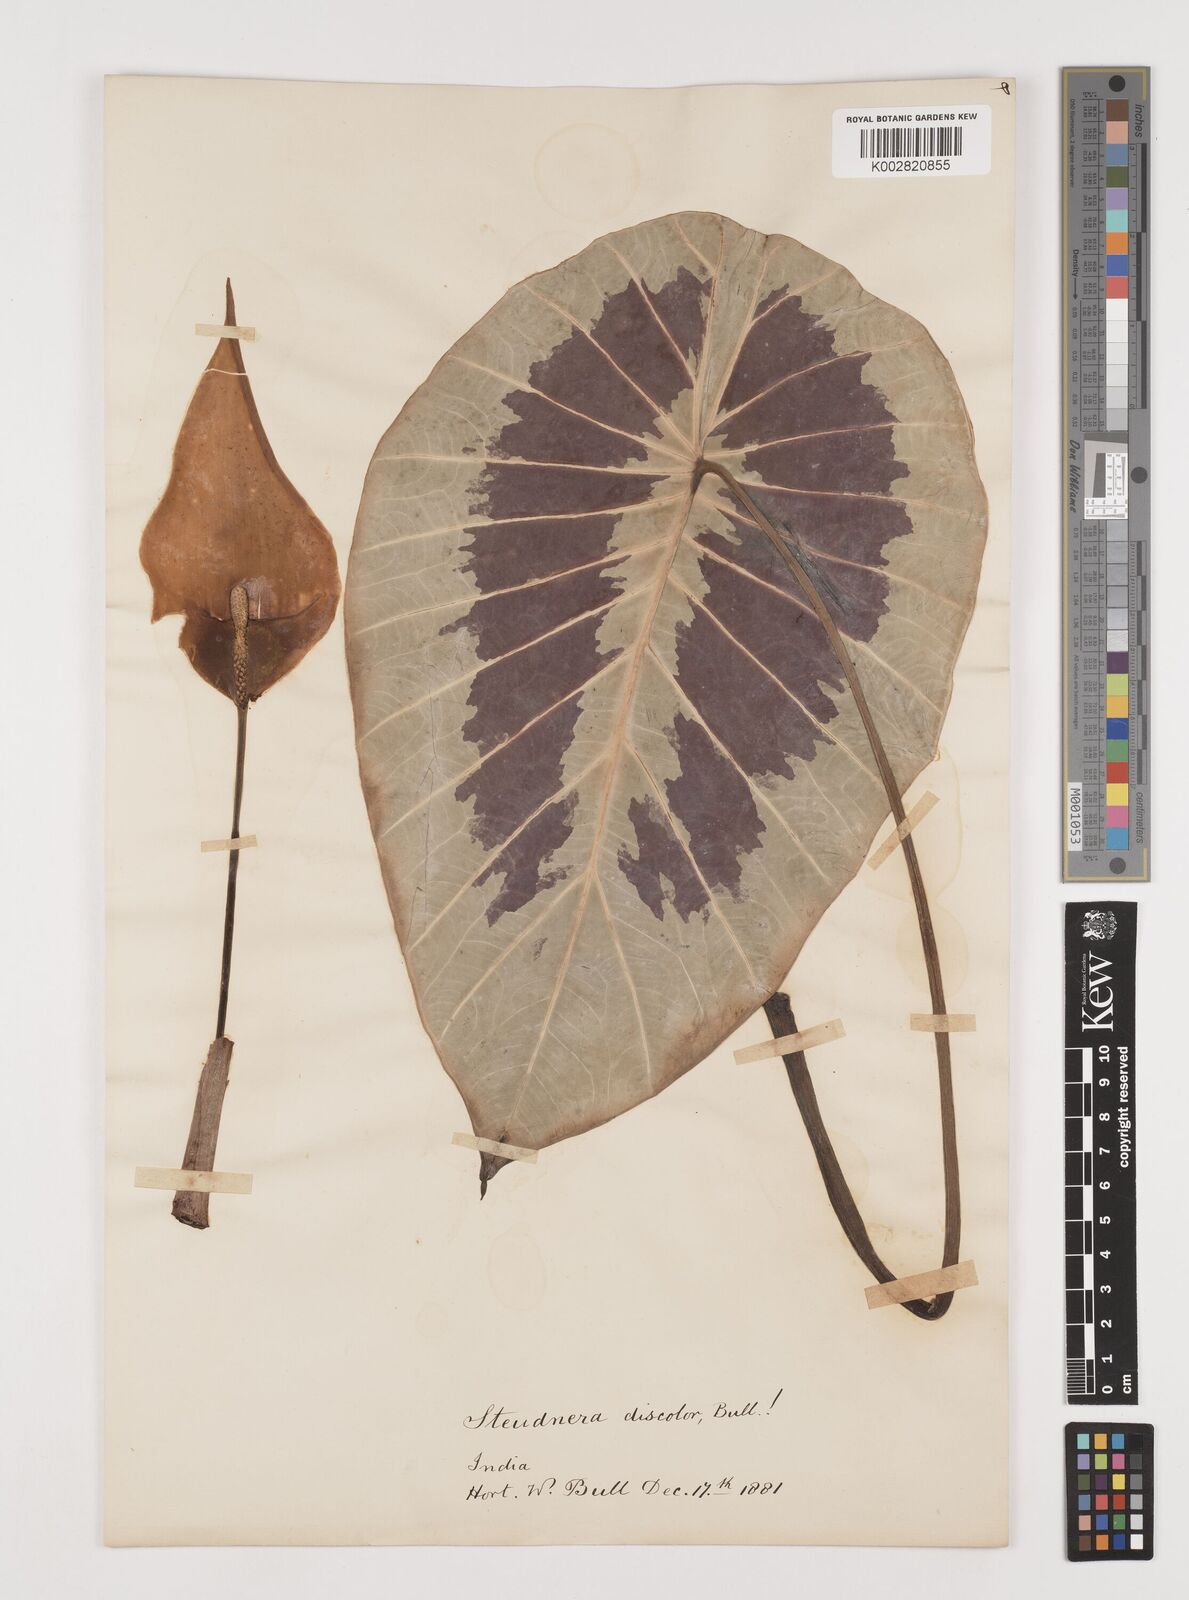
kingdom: Plantae
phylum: Tracheophyta
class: Liliopsida
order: Alismatales
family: Araceae
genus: Steudnera
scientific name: Steudnera discolor
